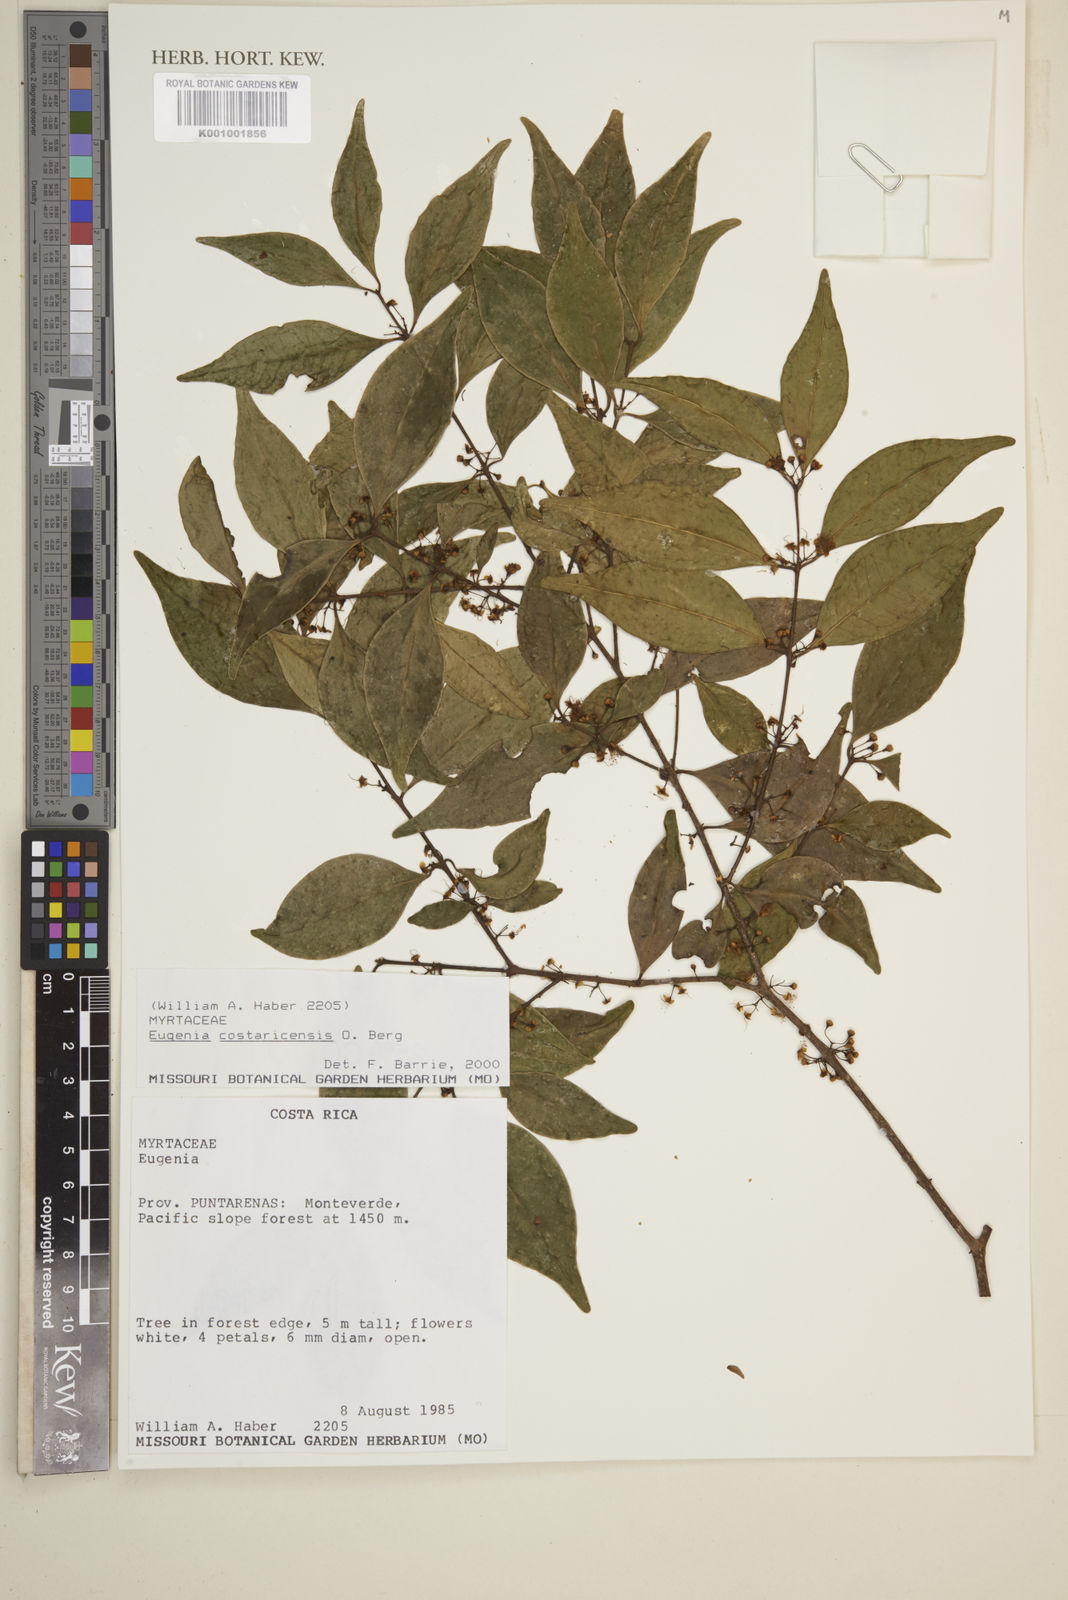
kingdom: Plantae
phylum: Tracheophyta
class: Magnoliopsida
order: Myrtales
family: Myrtaceae
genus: Eugenia
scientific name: Eugenia costaricensis
